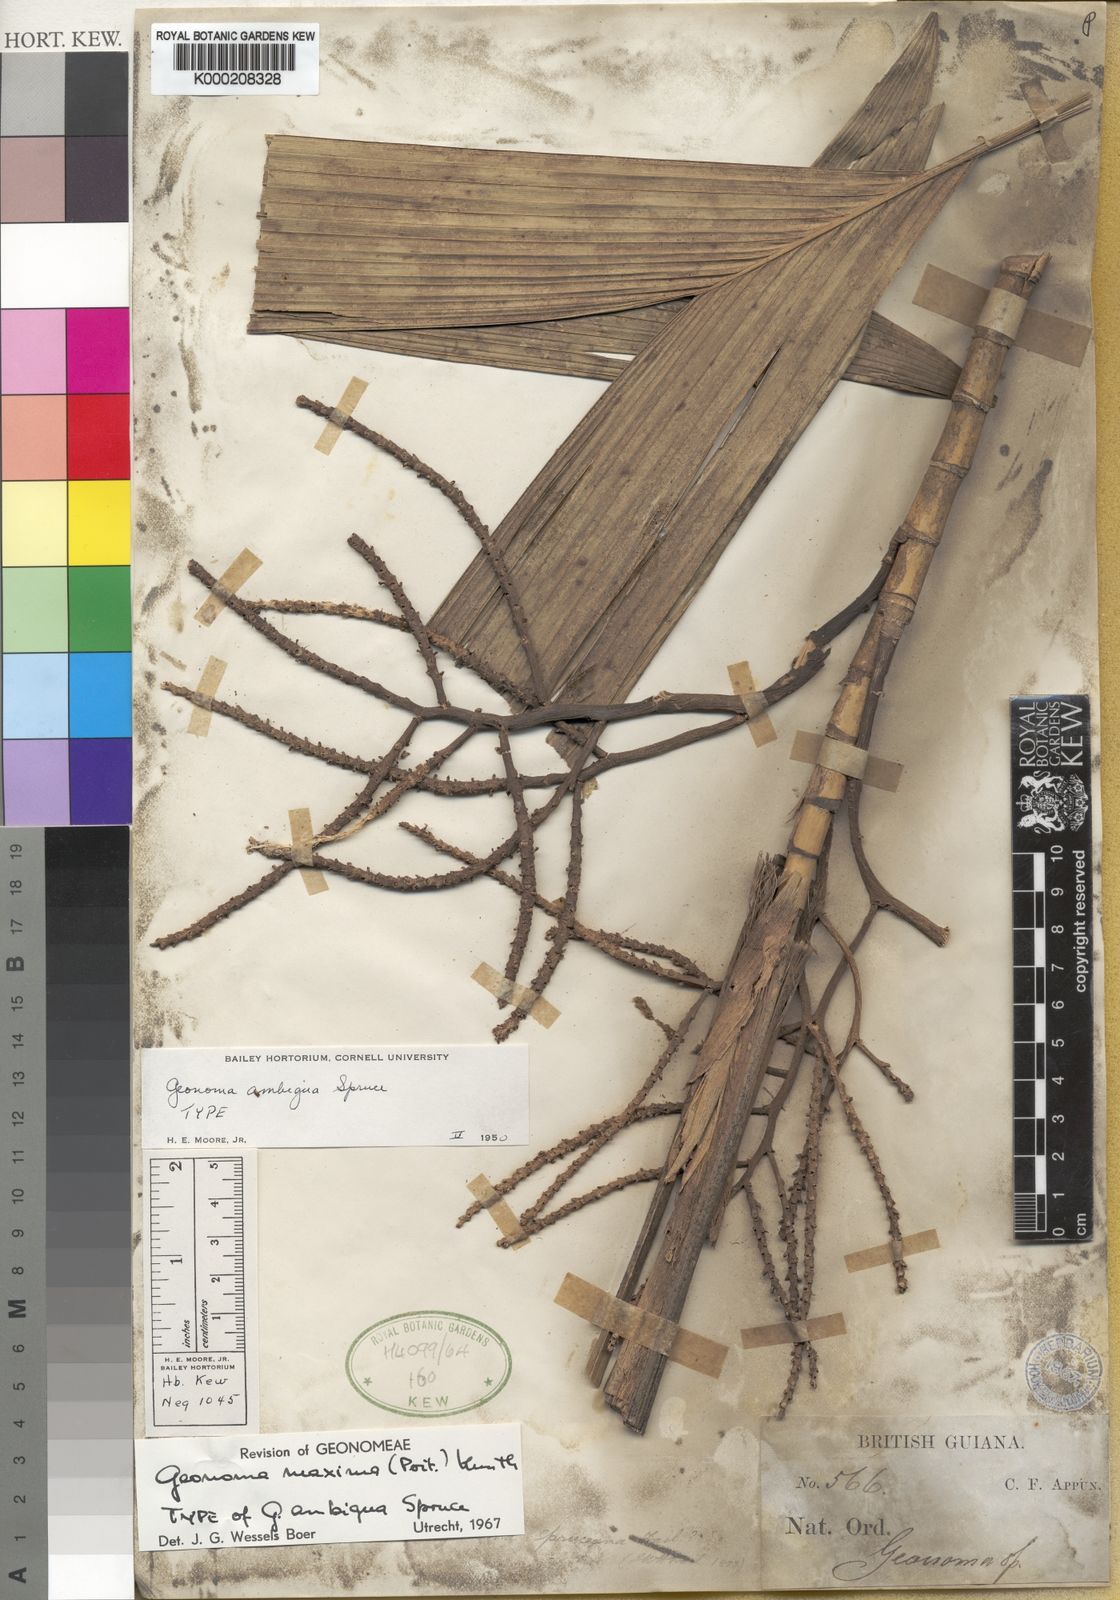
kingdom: Plantae
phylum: Tracheophyta
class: Liliopsida
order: Arecales
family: Arecaceae
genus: Geonoma
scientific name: Geonoma maxima
